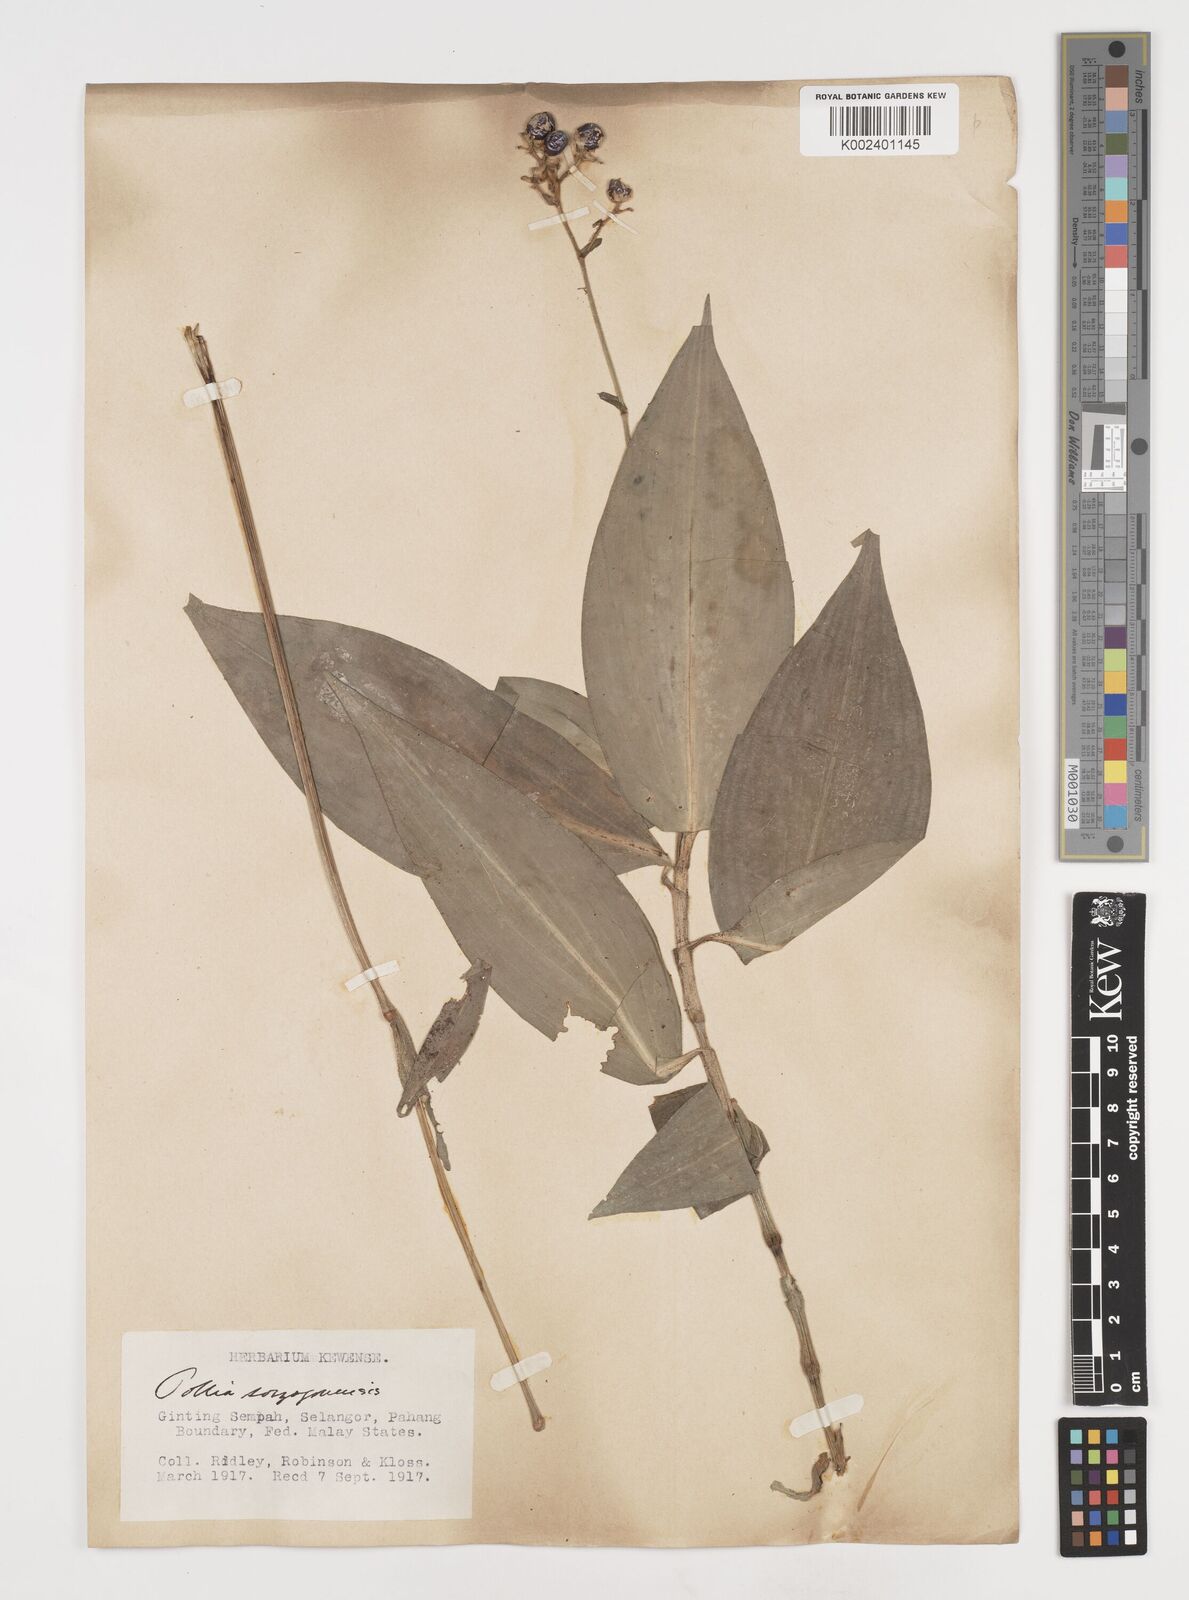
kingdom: Plantae
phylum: Tracheophyta
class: Liliopsida
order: Commelinales
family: Commelinaceae
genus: Pollia
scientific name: Pollia secundiflora
